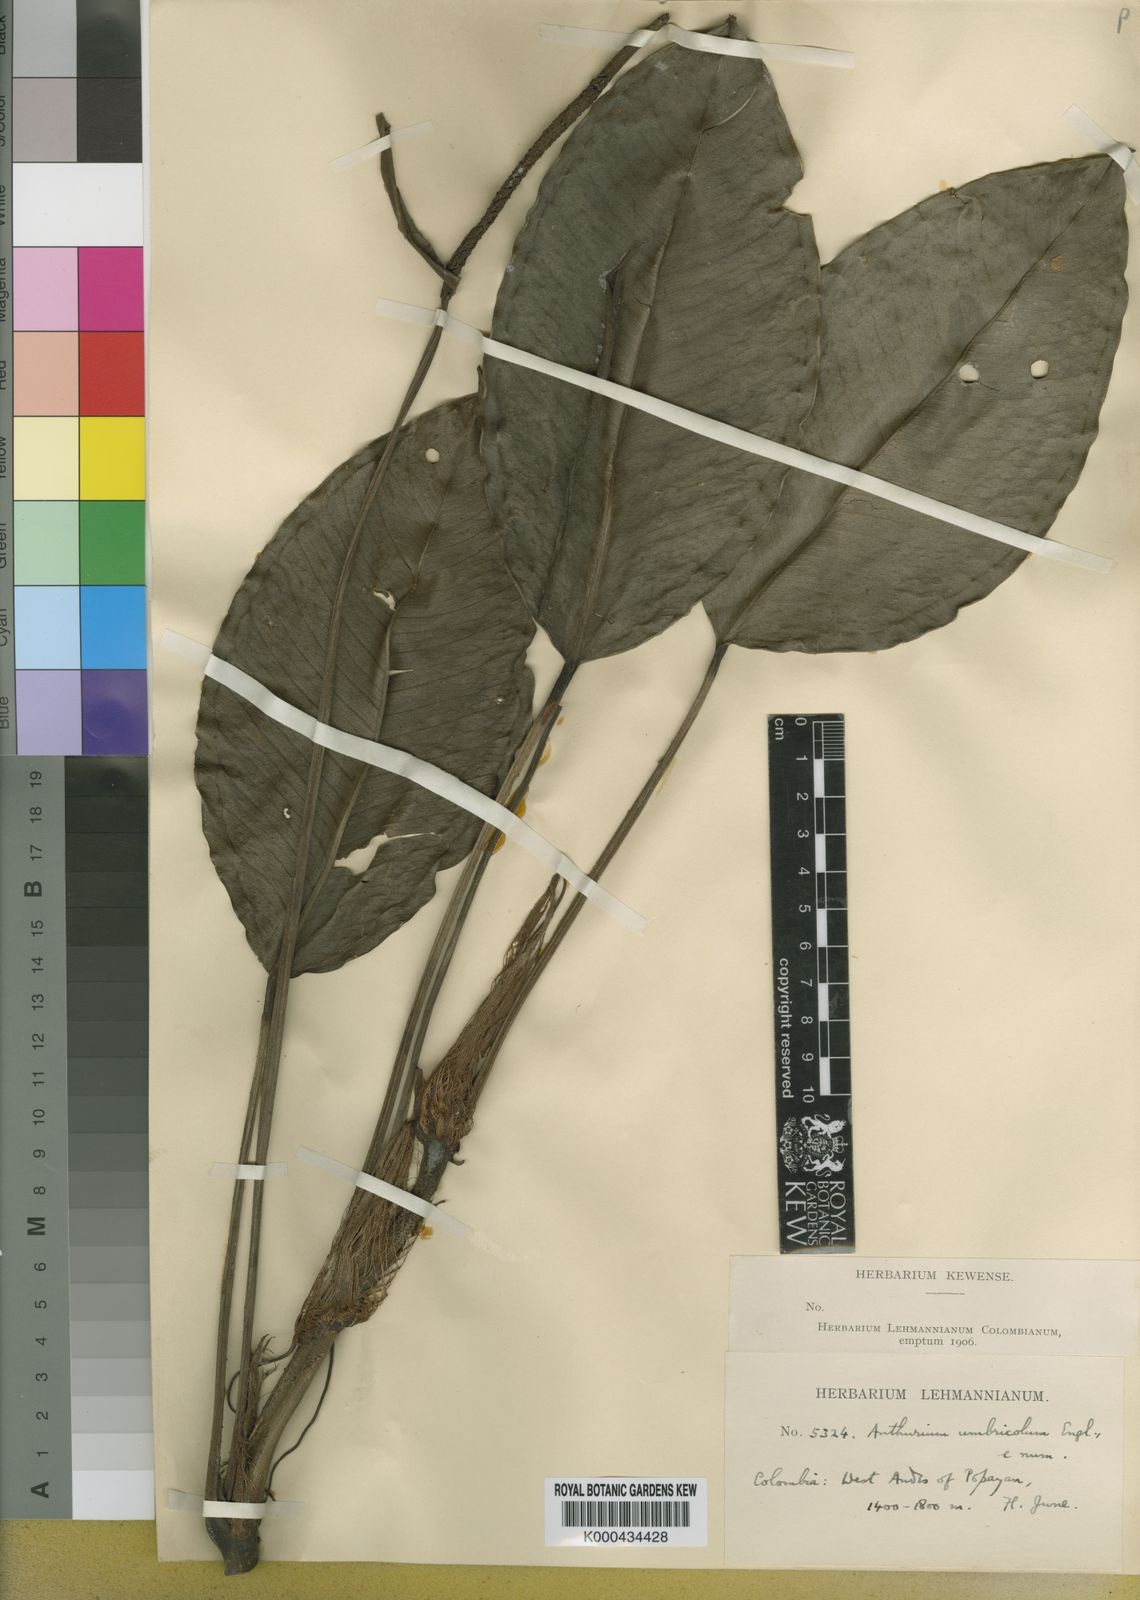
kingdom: Plantae
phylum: Tracheophyta
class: Liliopsida
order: Alismatales
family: Araceae
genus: Anthurium
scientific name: Anthurium umbricola
